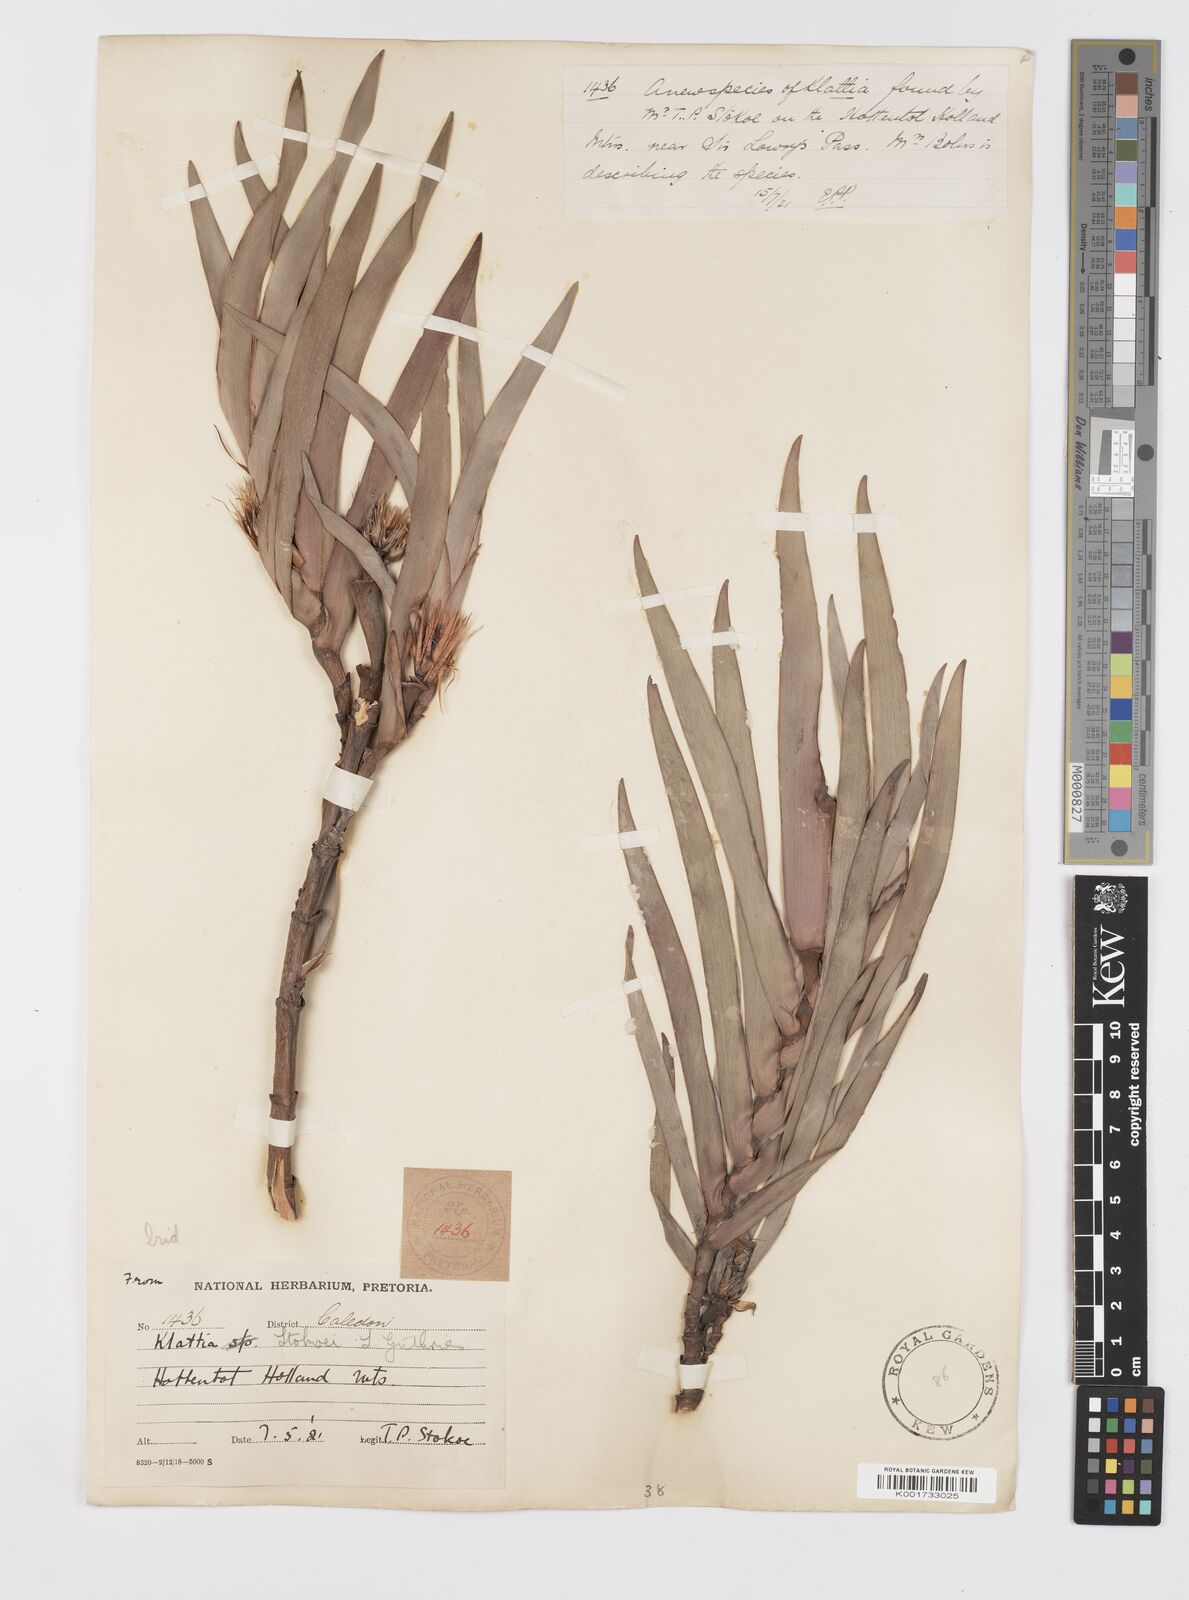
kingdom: Plantae
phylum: Tracheophyta
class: Liliopsida
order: Asparagales
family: Iridaceae
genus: Klattia
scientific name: Klattia stokoei
